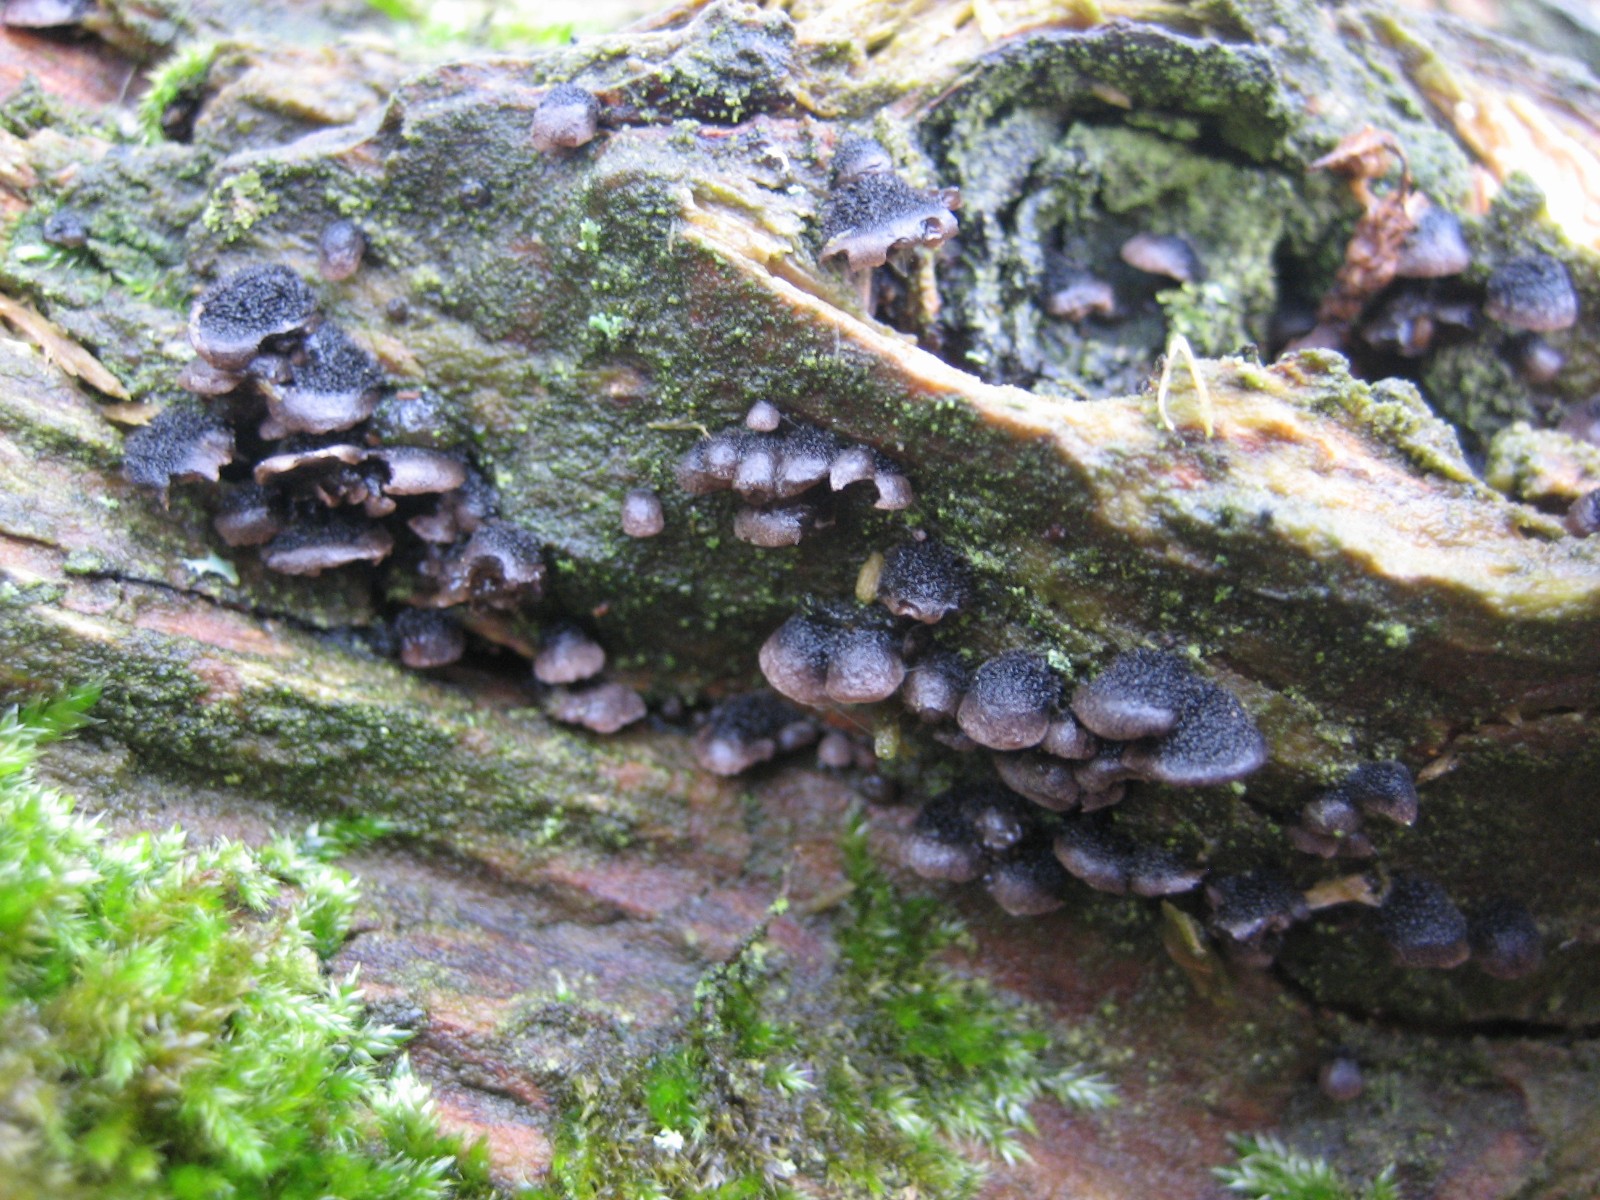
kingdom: Fungi
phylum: Basidiomycota
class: Agaricomycetes
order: Agaricales
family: Pleurotaceae
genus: Resupinatus
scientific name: Resupinatus trichotis
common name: mørkfiltet barkhat
